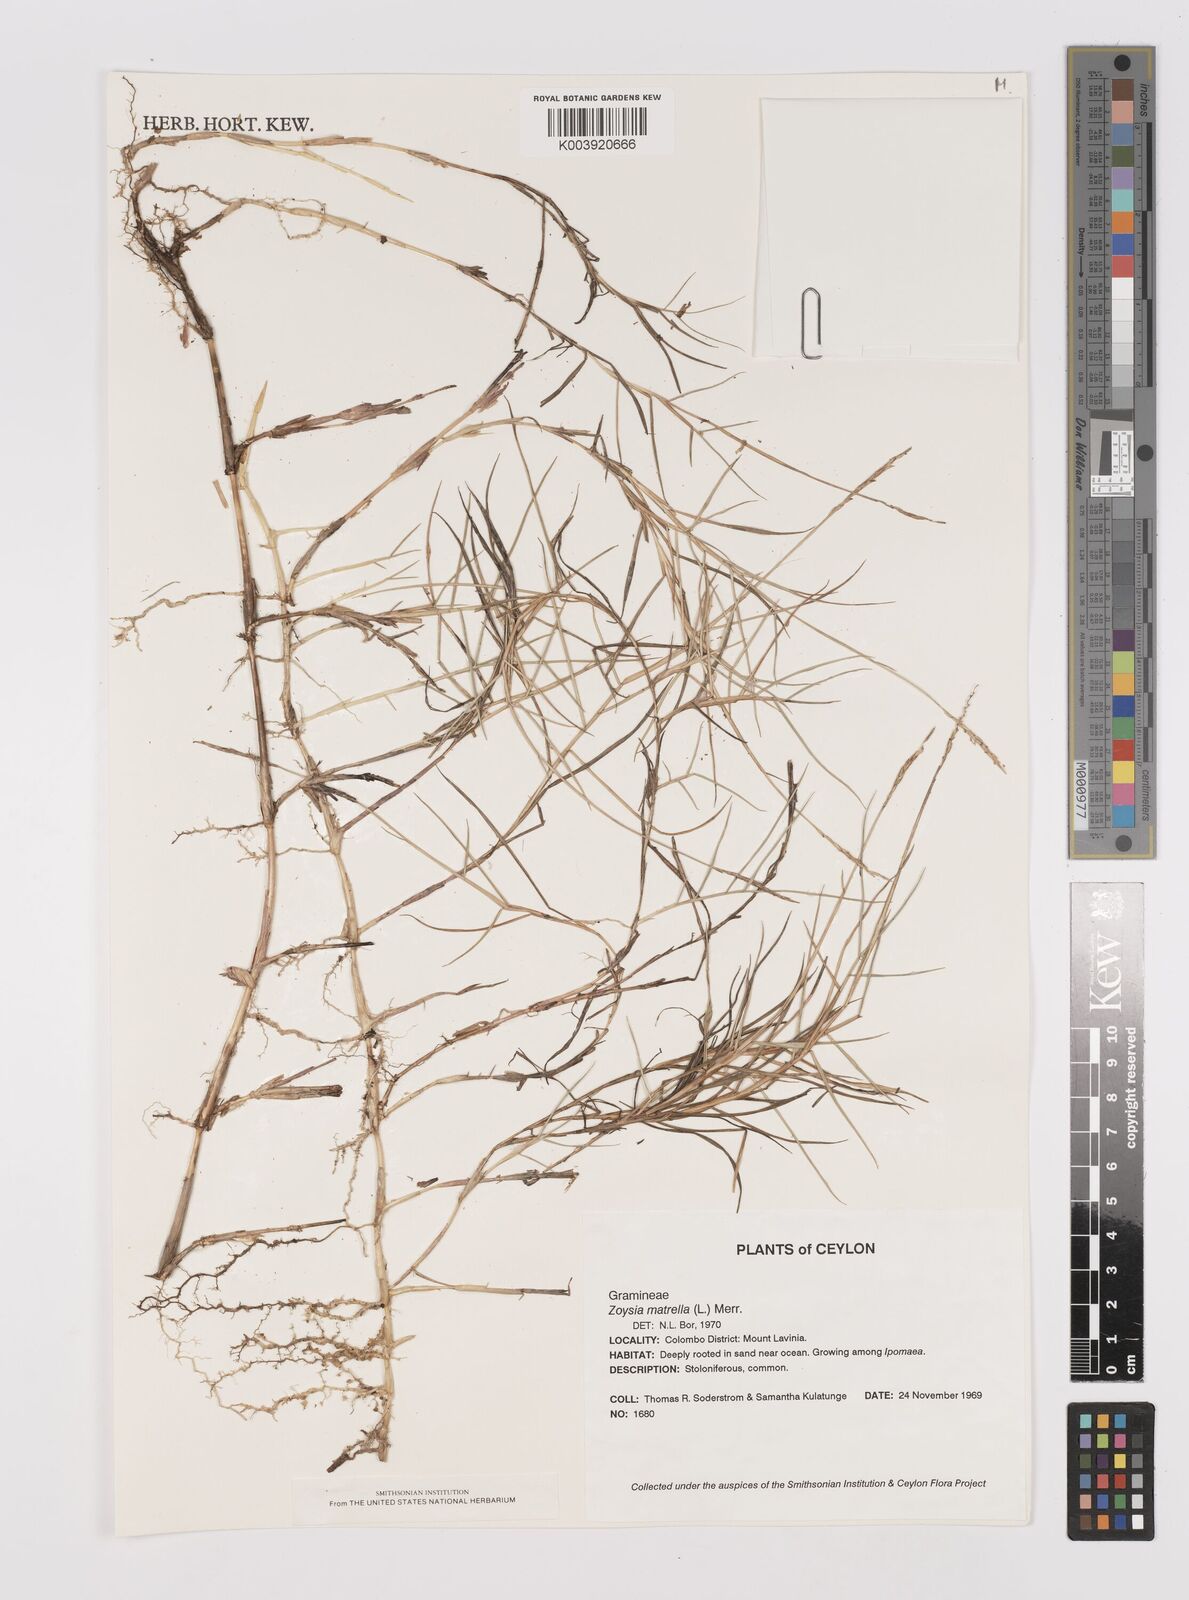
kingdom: Plantae
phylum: Tracheophyta
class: Liliopsida
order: Poales
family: Poaceae
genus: Zoysia
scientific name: Zoysia matrella
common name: Manila grass
